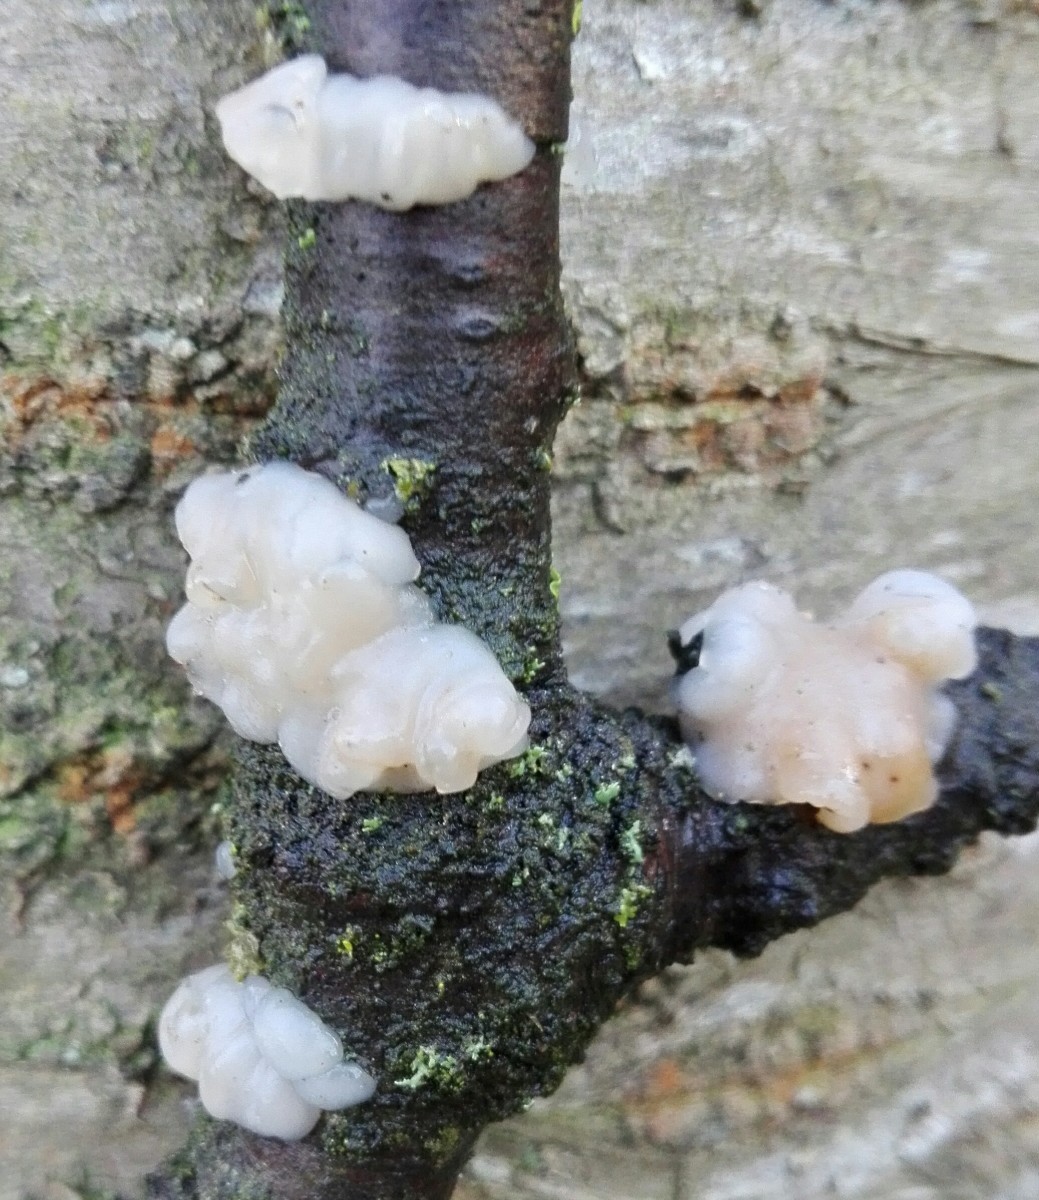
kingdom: Fungi
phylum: Basidiomycota
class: Agaricomycetes
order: Auriculariales
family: Auriculariaceae
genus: Exidia
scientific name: Exidia thuretiana
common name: hvidlig bævretop
